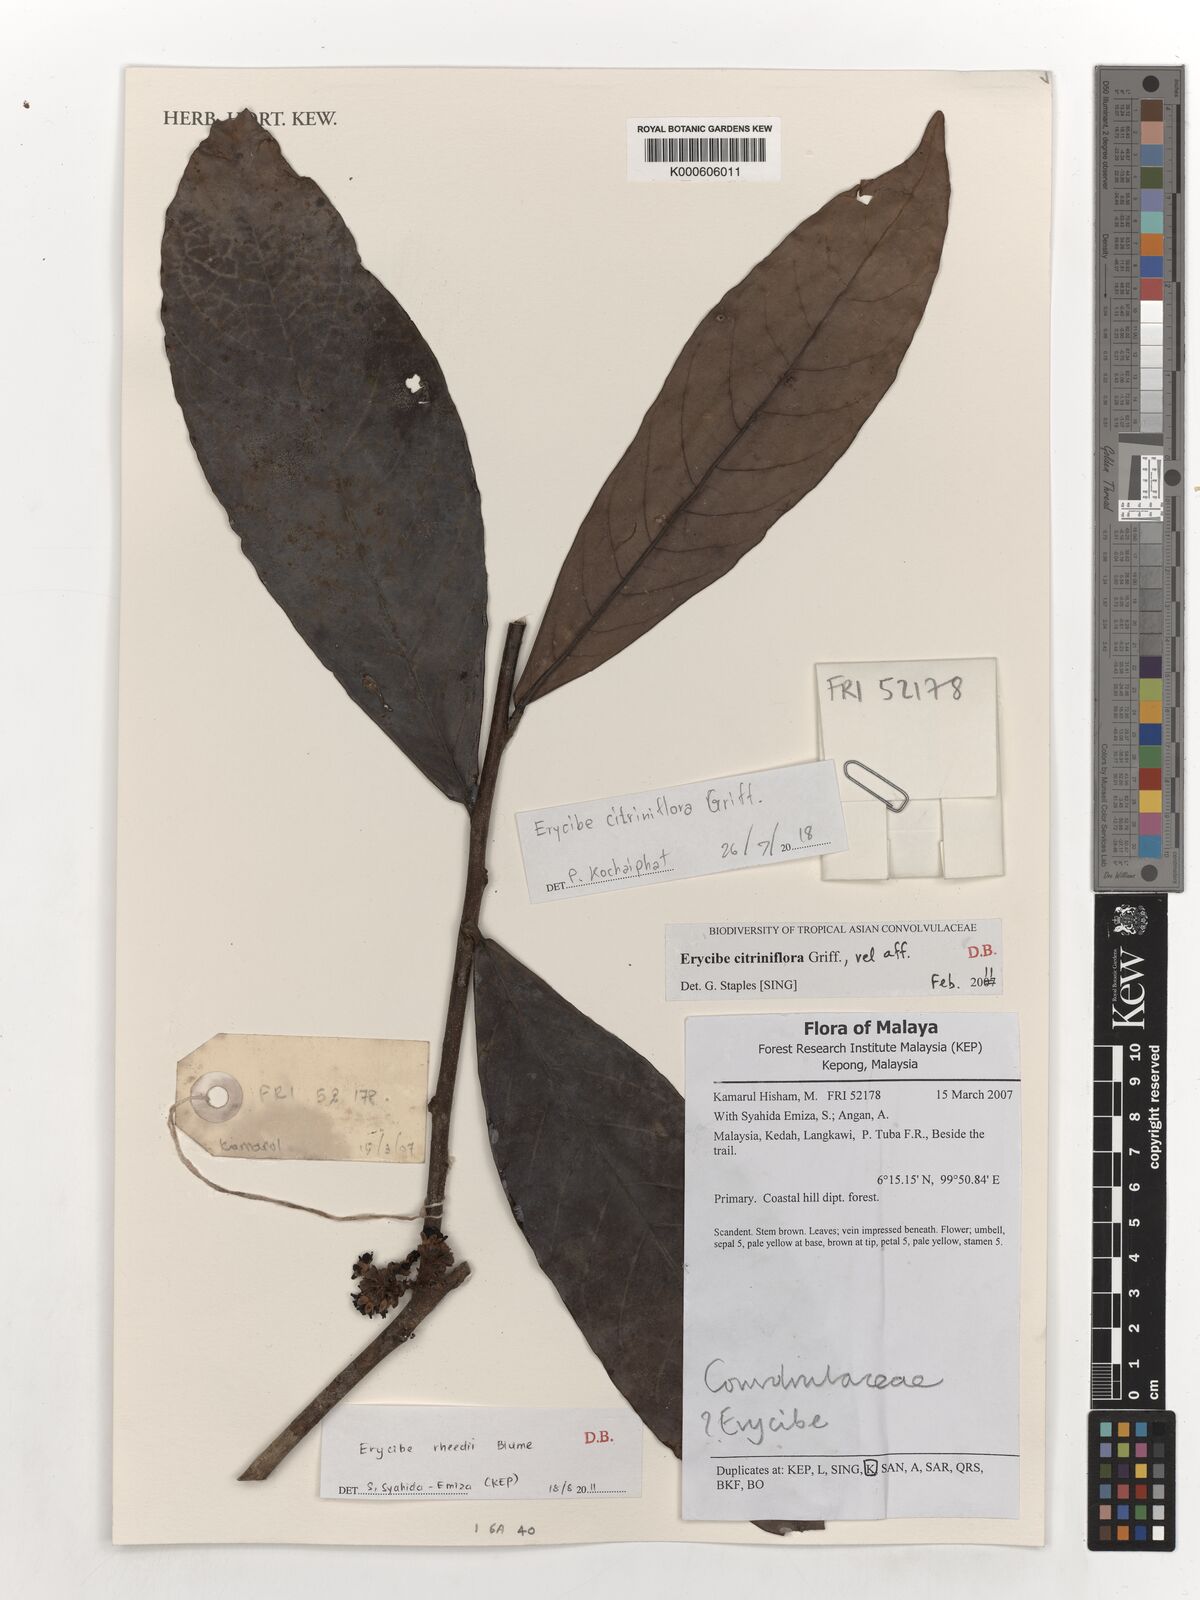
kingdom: Plantae
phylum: Tracheophyta
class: Magnoliopsida
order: Solanales
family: Convolvulaceae
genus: Erycibe
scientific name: Erycibe citriniflora
